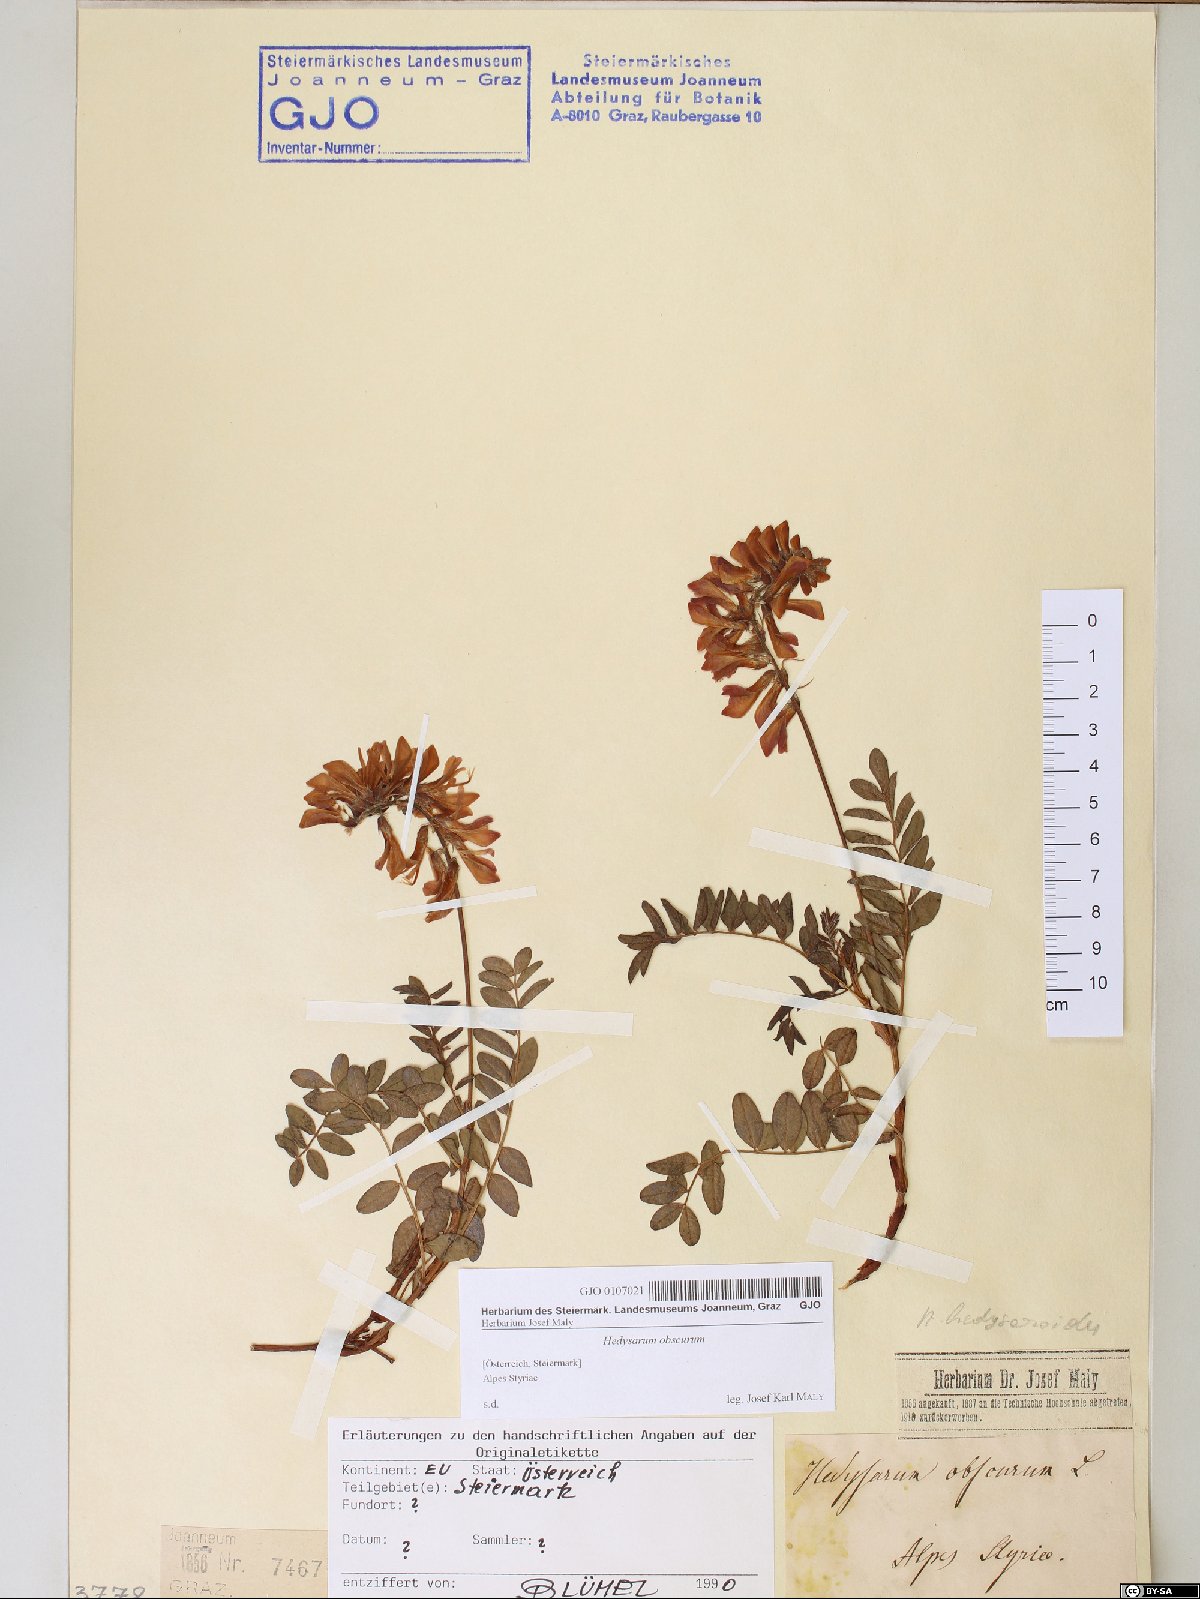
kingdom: Plantae
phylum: Tracheophyta
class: Magnoliopsida
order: Fabales
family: Fabaceae
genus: Hedysarum
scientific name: Hedysarum hedysaroides
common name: Alpine french-honeysuckle
